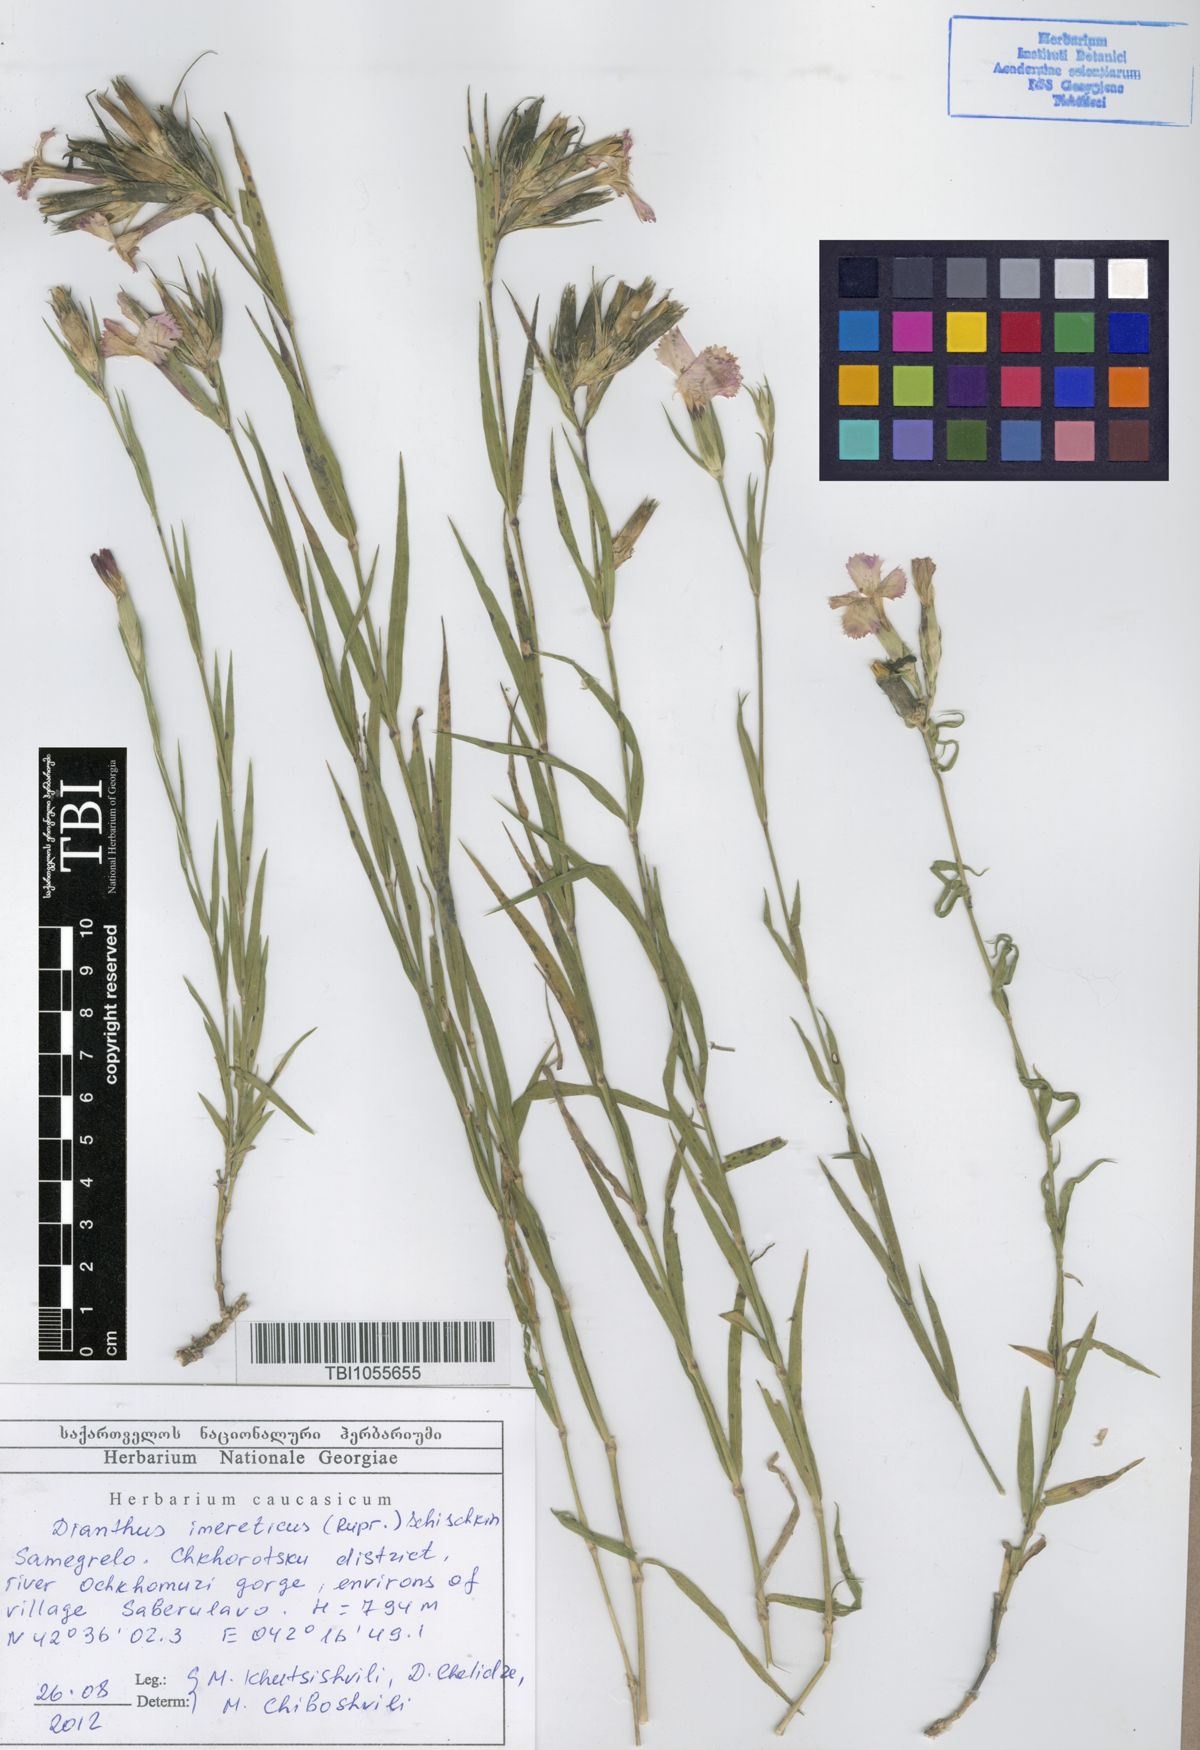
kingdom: Plantae
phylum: Tracheophyta
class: Magnoliopsida
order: Caryophyllales
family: Caryophyllaceae
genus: Dianthus
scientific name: Dianthus imereticus
